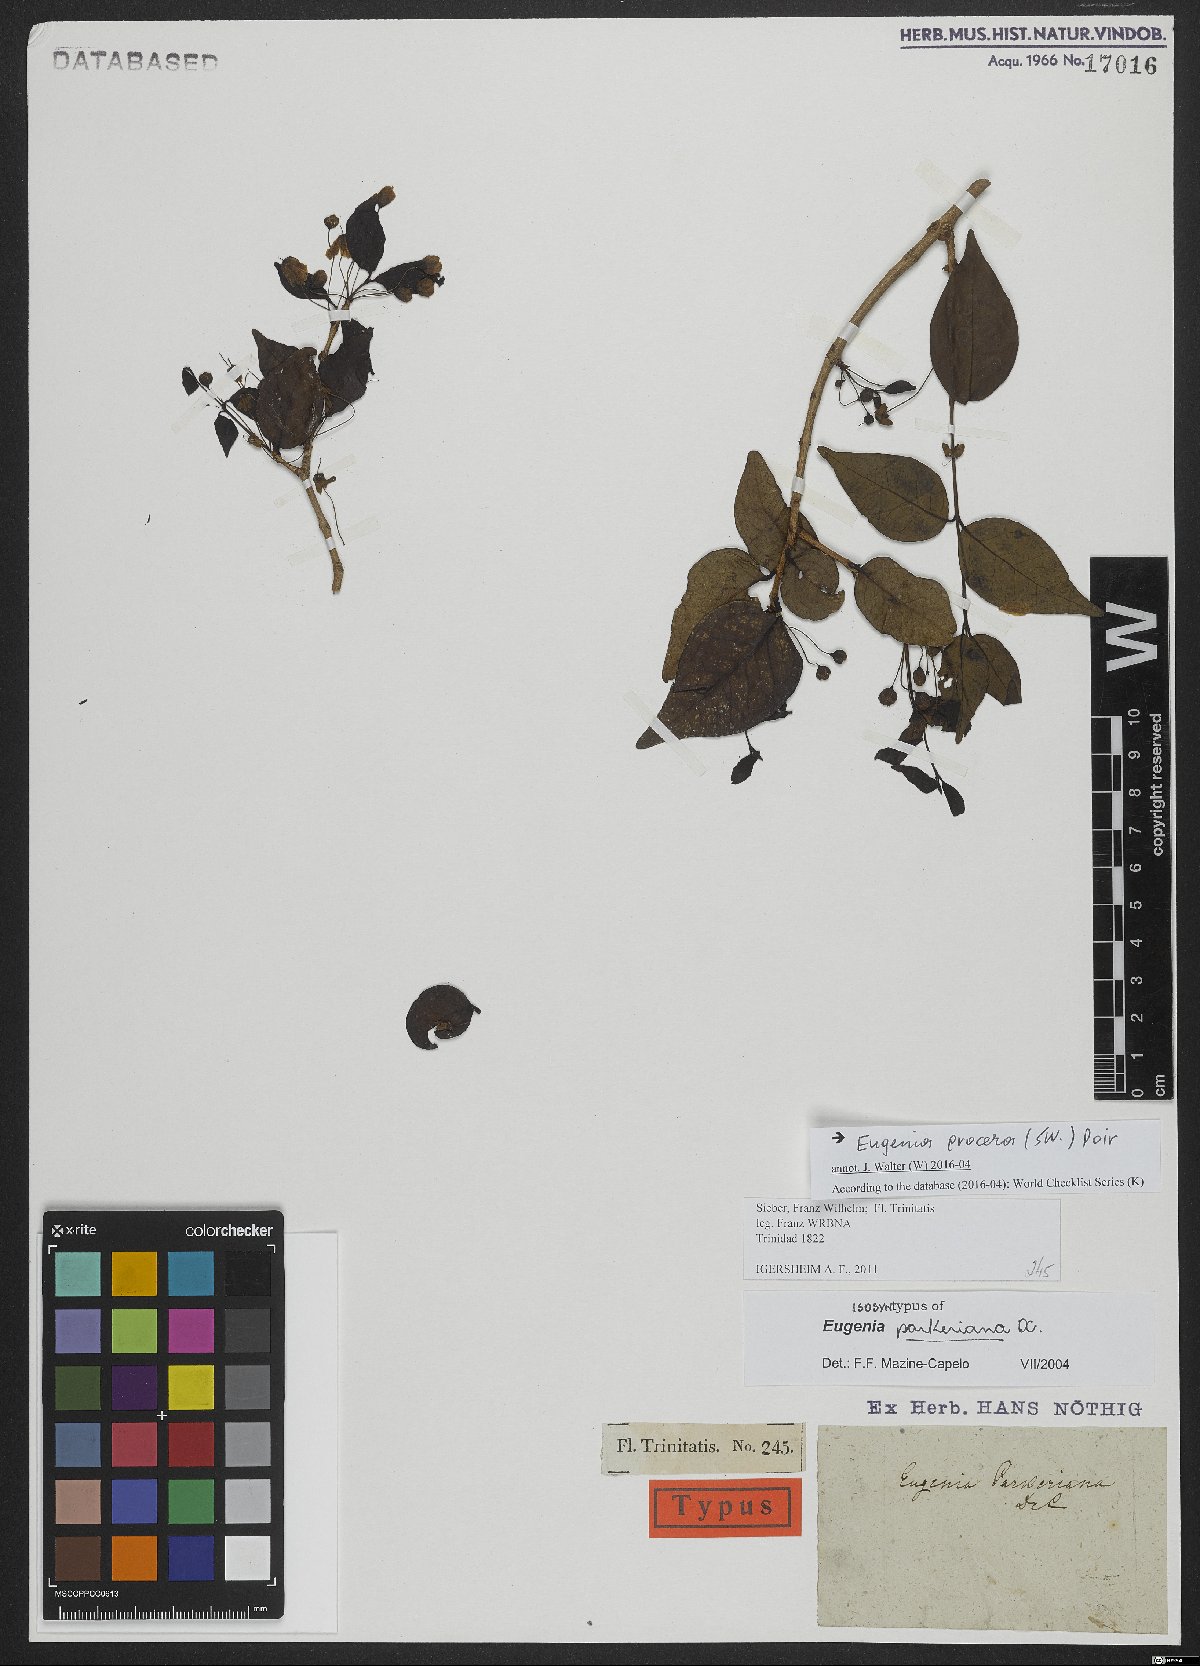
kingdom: Plantae
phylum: Tracheophyta
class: Magnoliopsida
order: Myrtales
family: Myrtaceae
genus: Eugenia
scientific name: Eugenia procera
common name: Bastard blackberry
